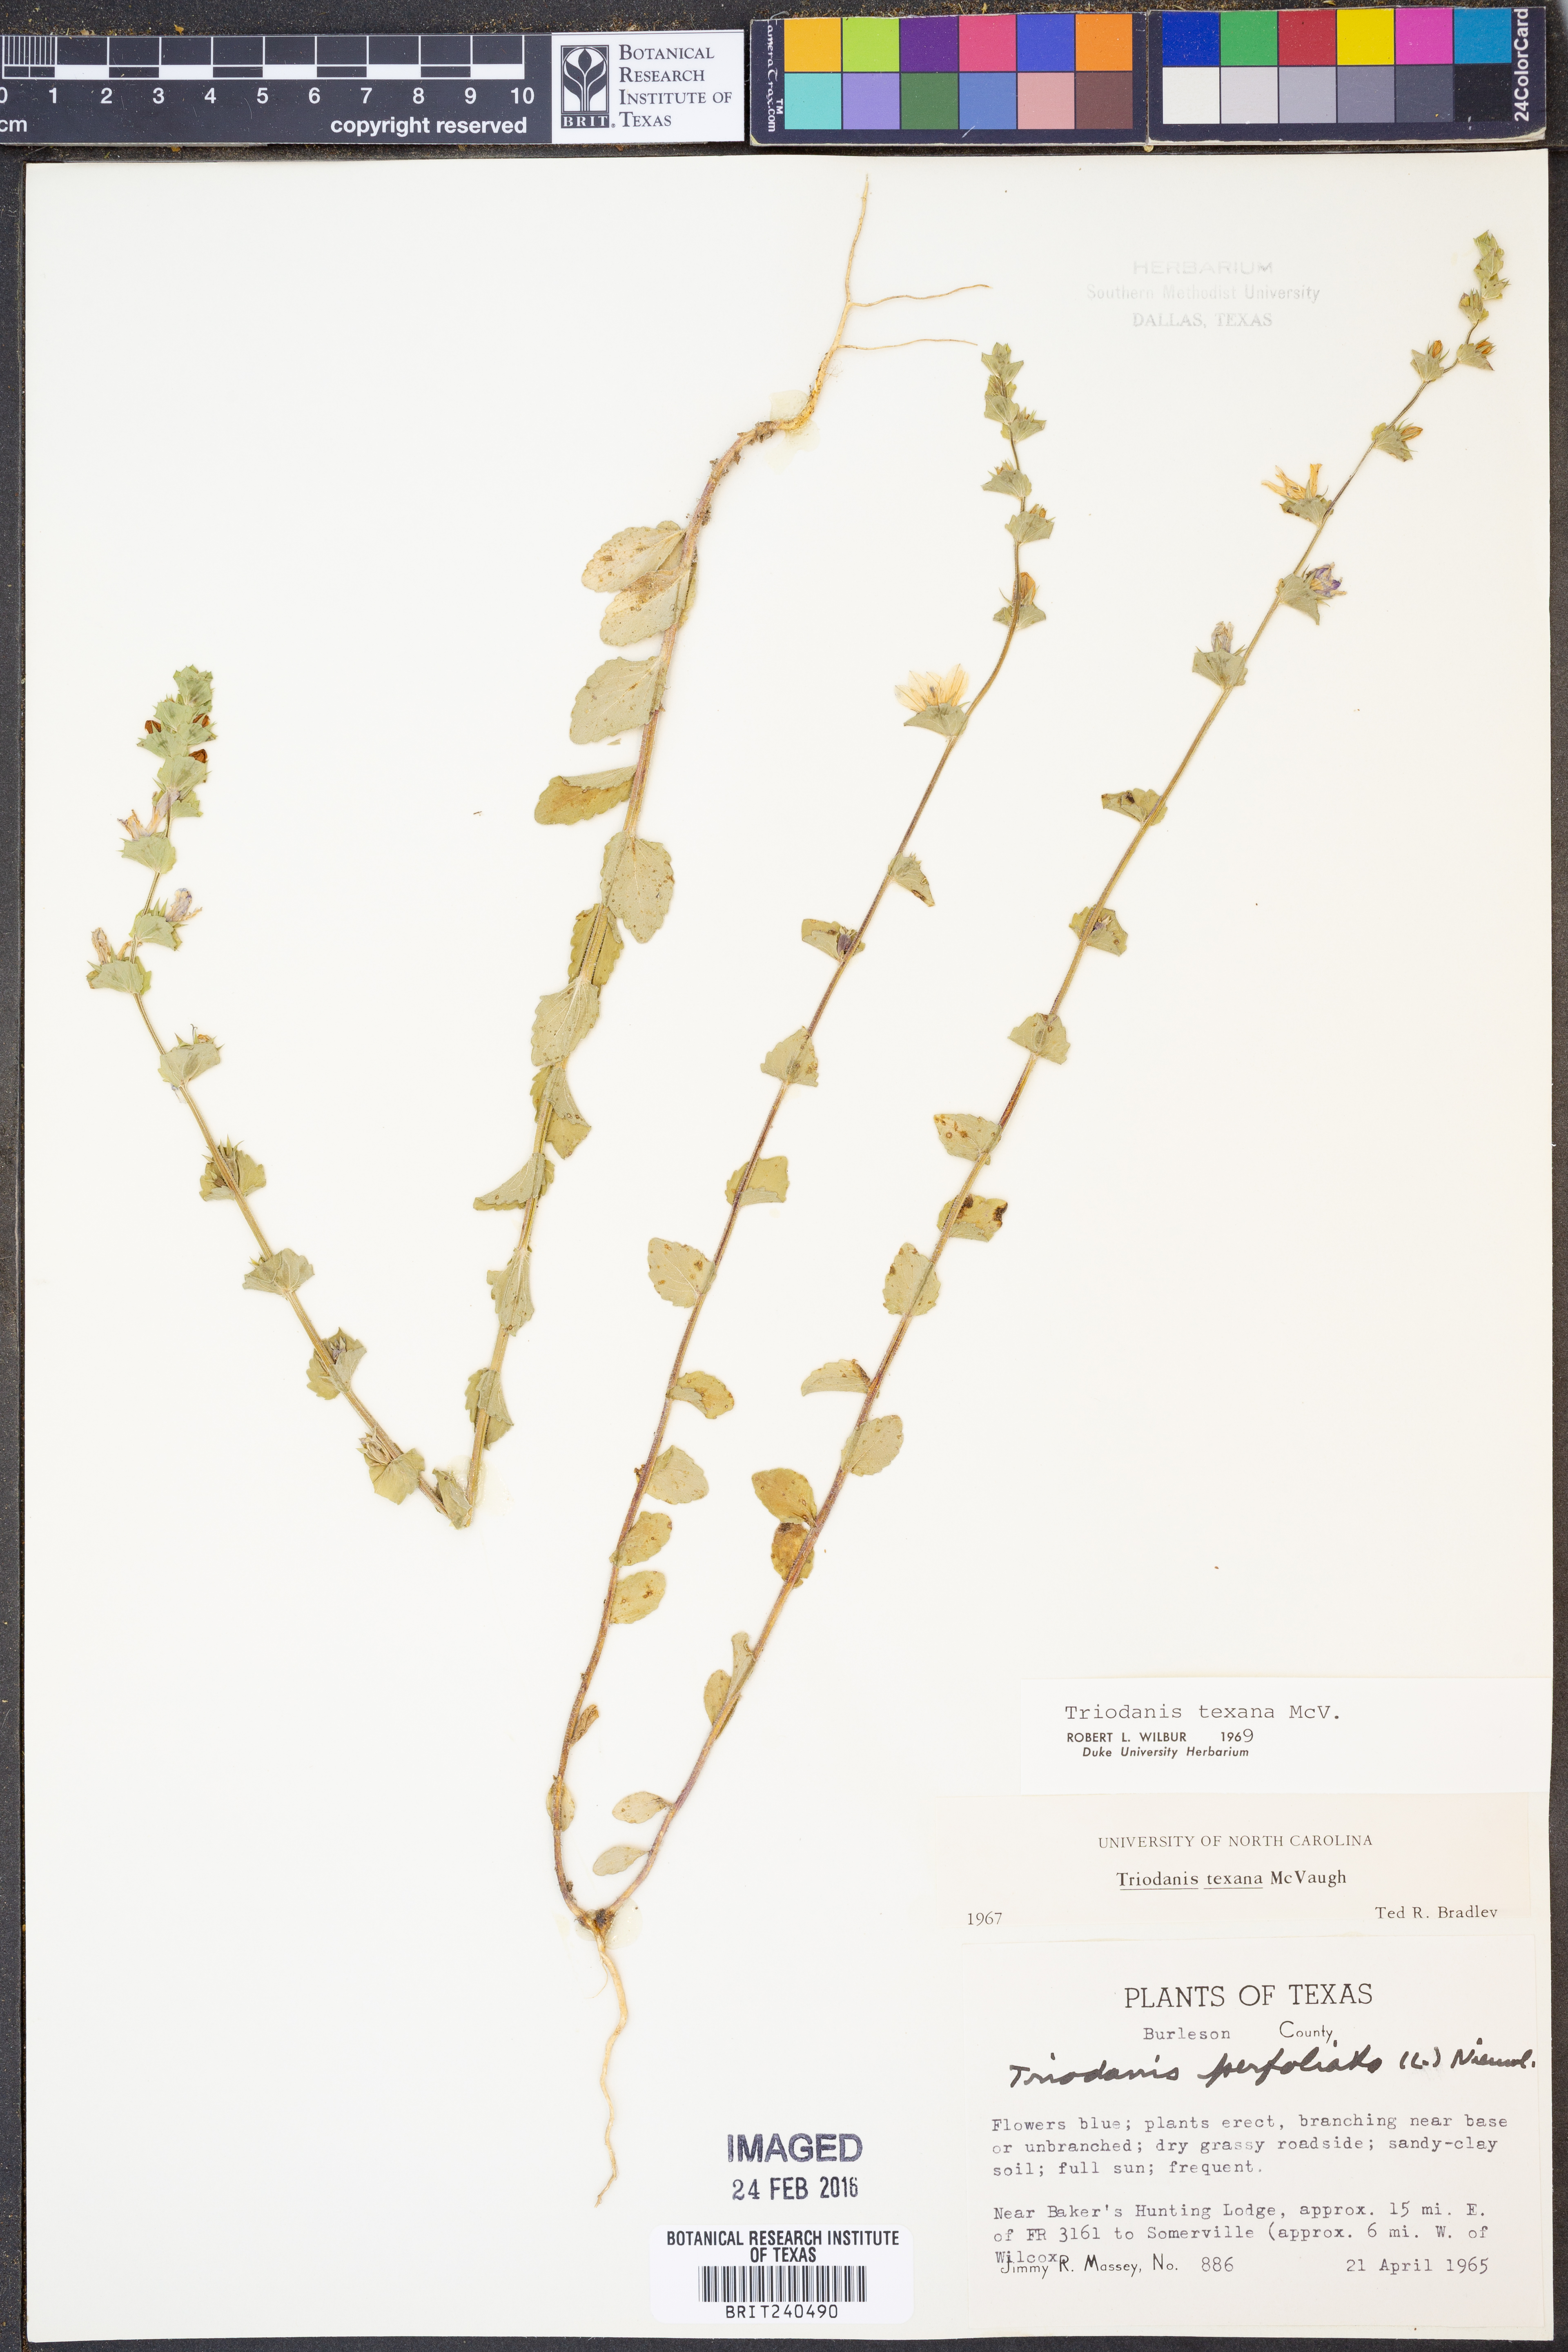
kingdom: Plantae
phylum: Tracheophyta
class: Magnoliopsida
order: Asterales
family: Campanulaceae
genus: Triodanis
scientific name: Triodanis texana
